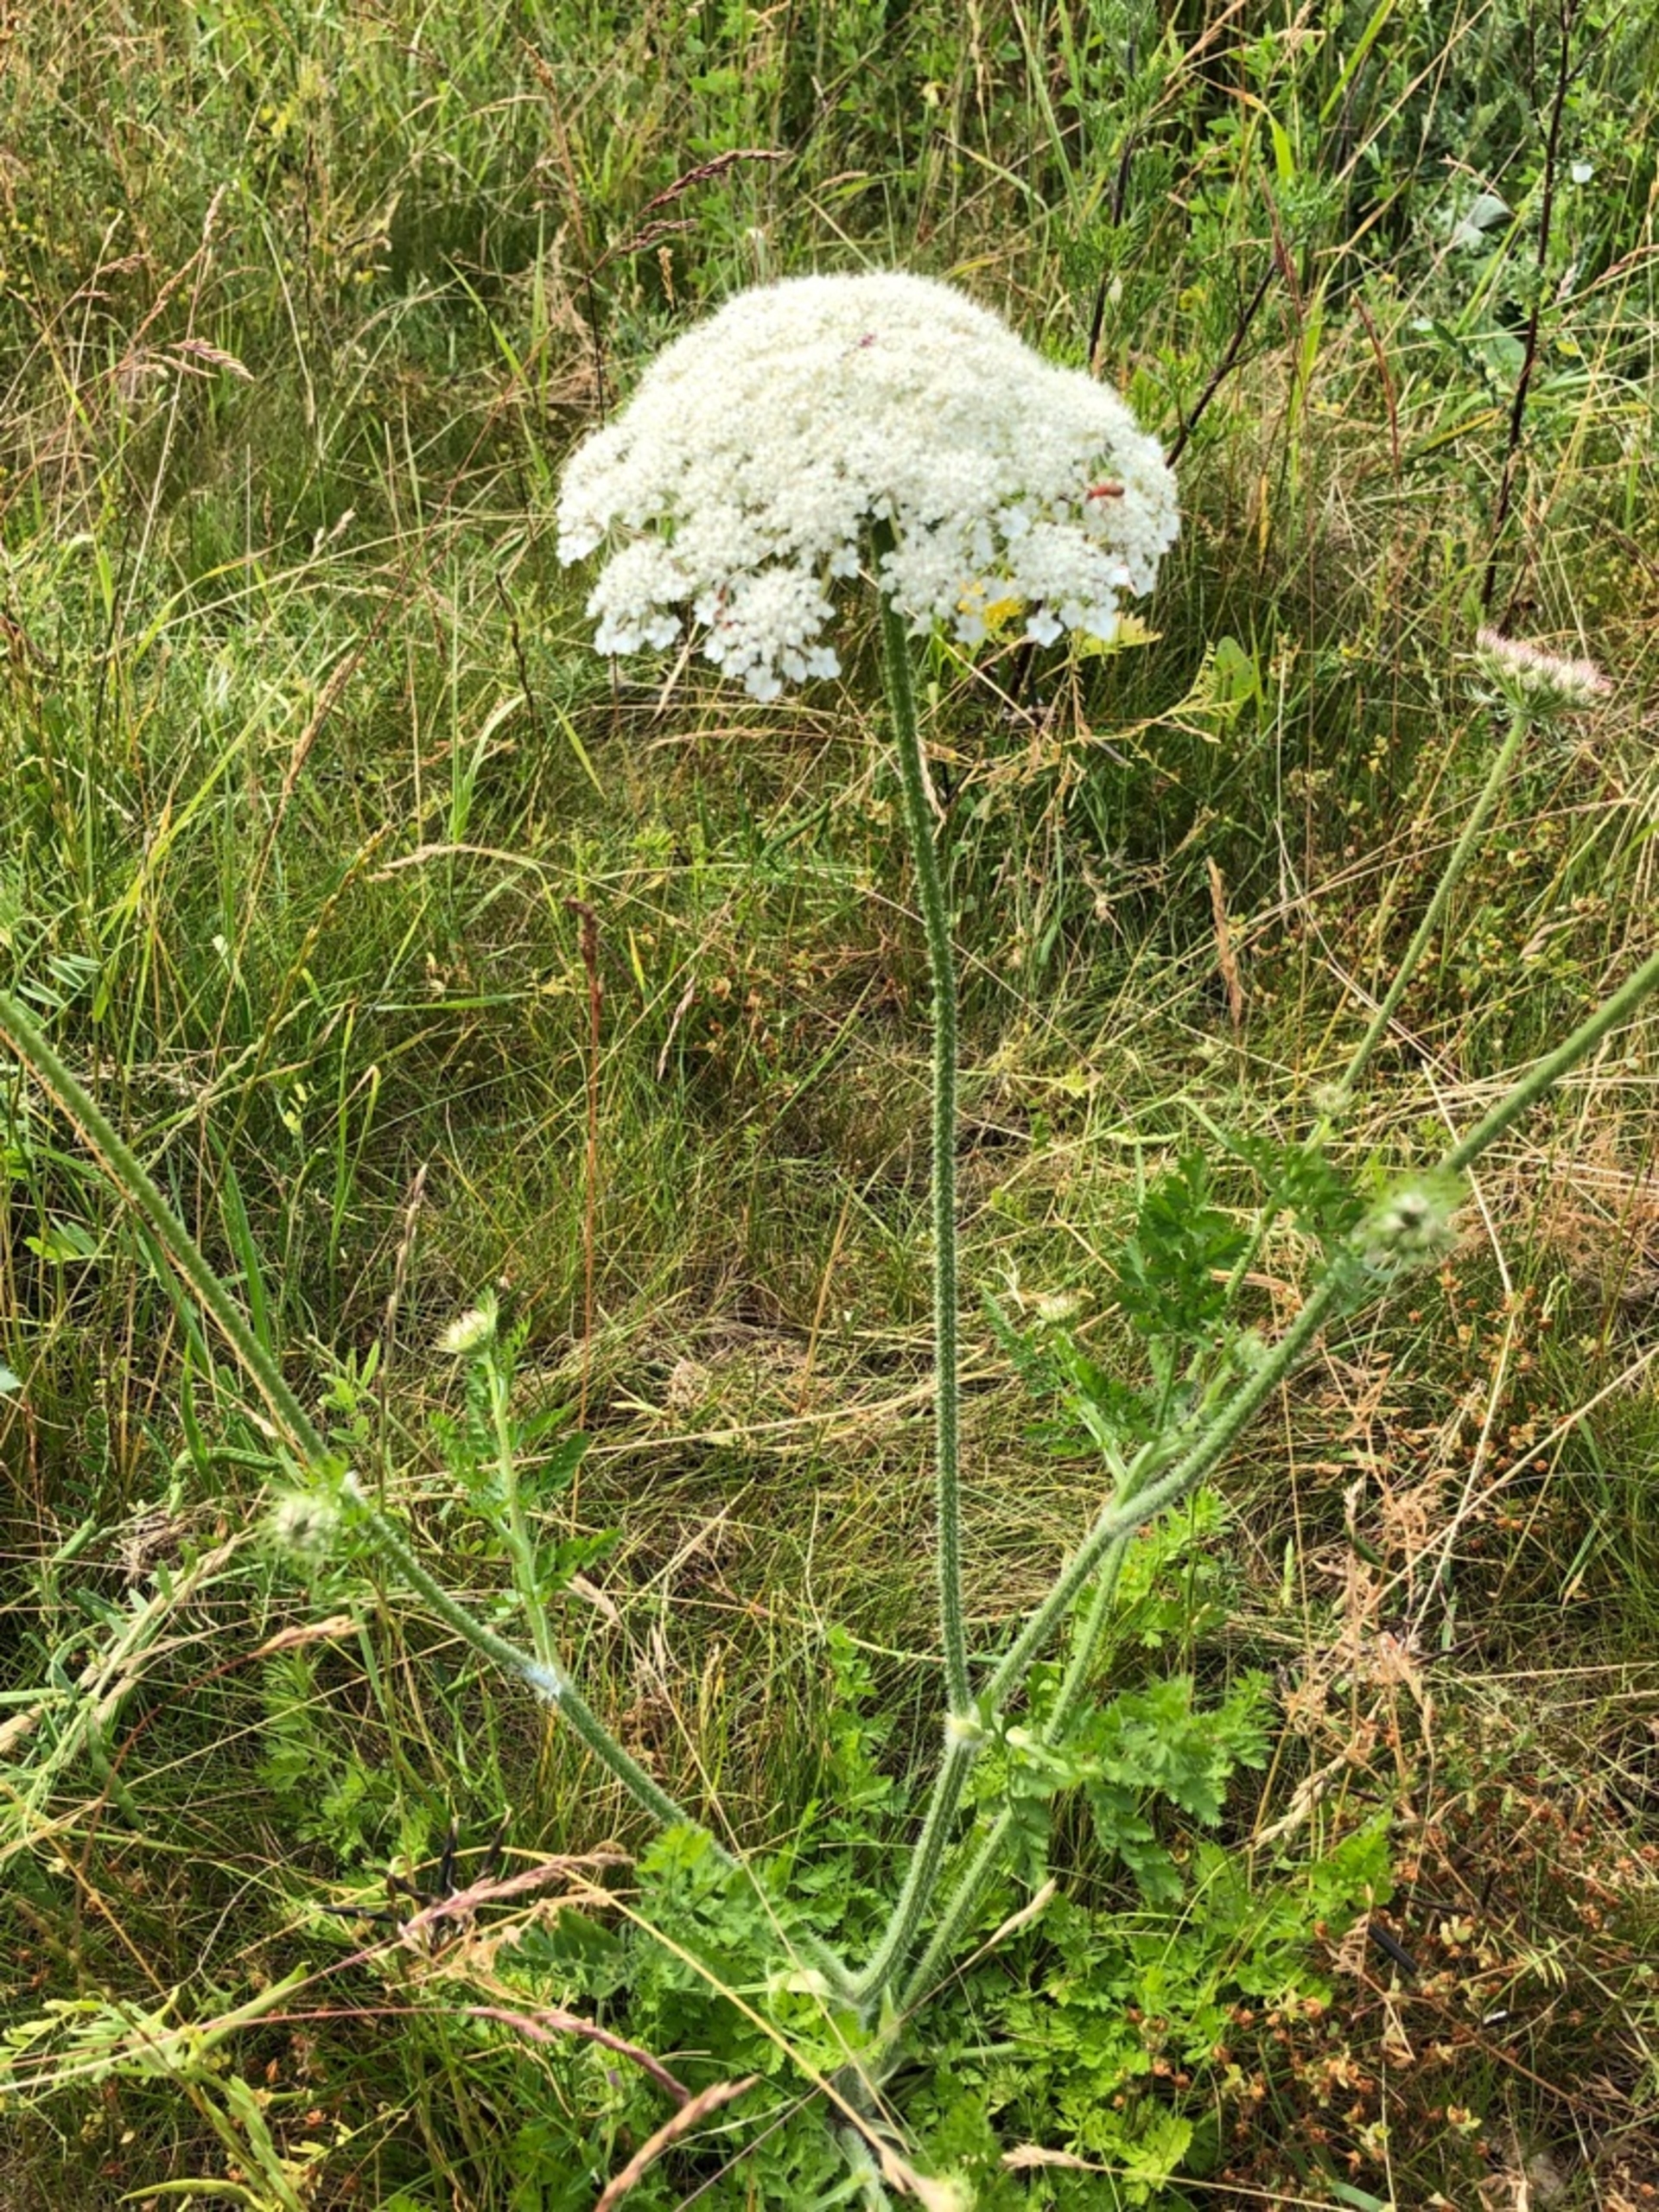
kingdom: Plantae
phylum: Tracheophyta
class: Magnoliopsida
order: Apiales
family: Apiaceae
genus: Daucus
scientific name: Daucus carota
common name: Vild gulerod
